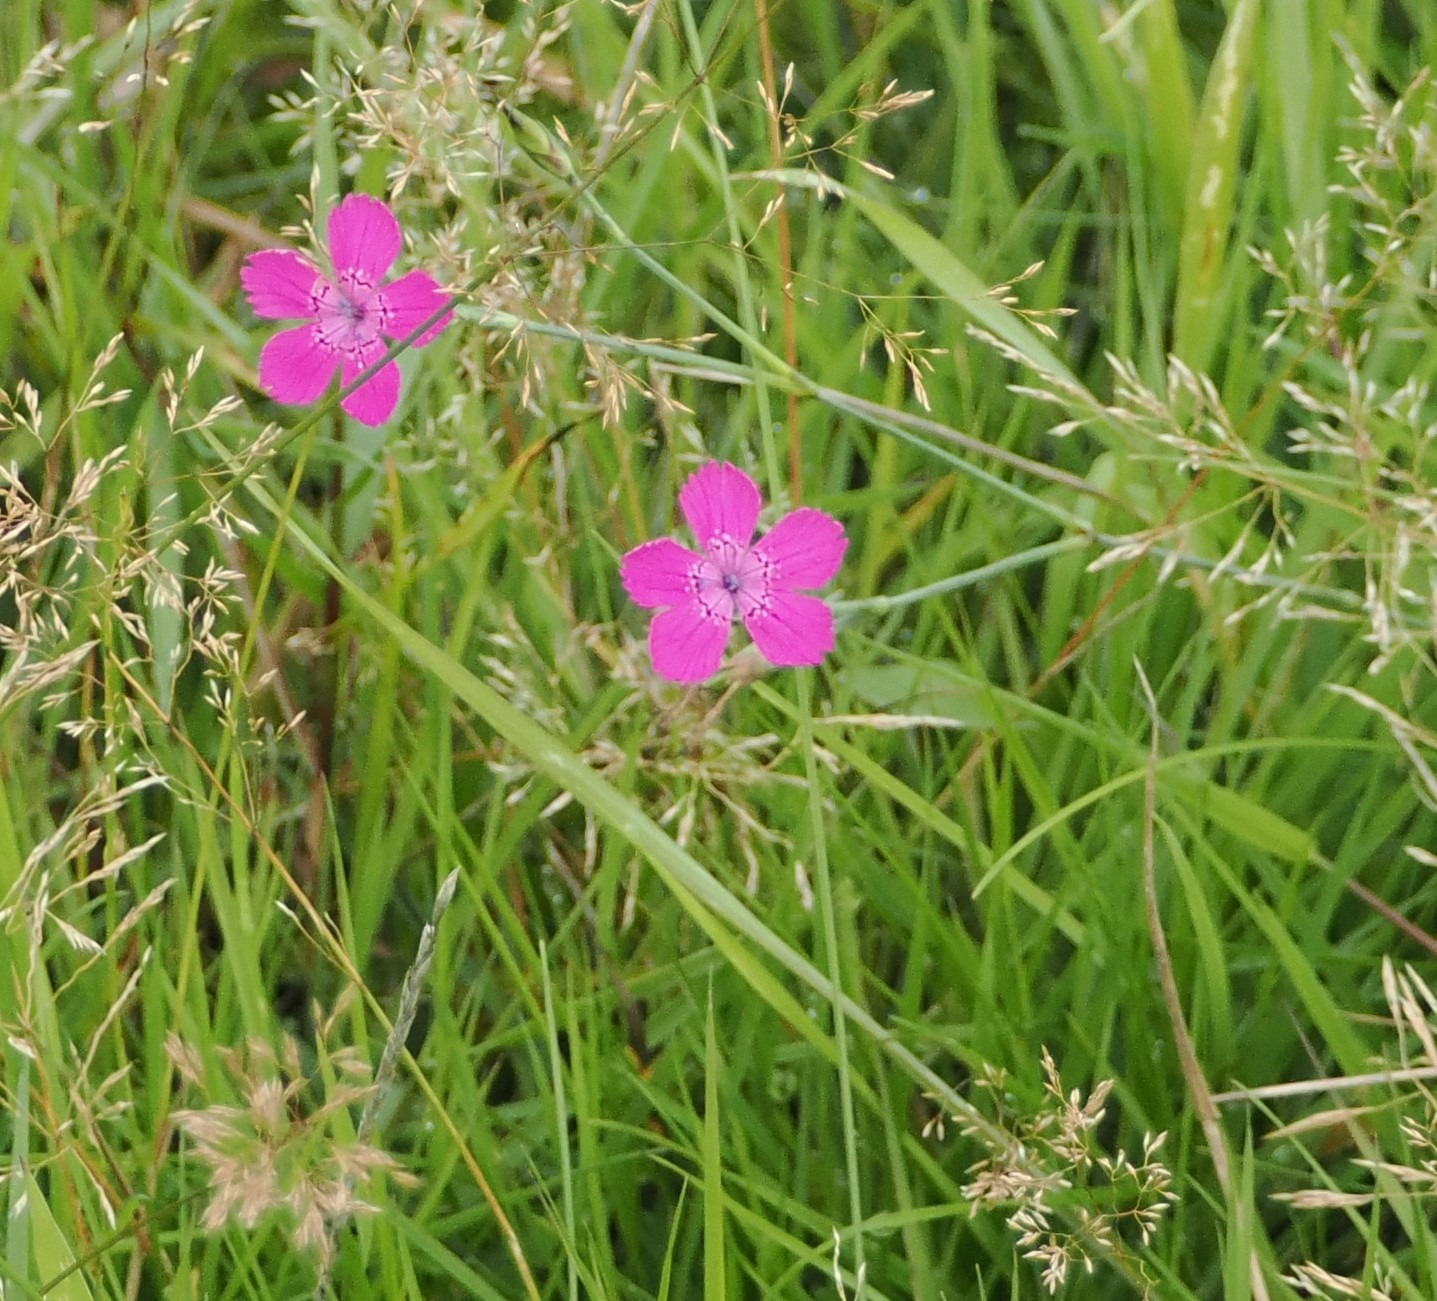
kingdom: Plantae
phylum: Tracheophyta
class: Magnoliopsida
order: Caryophyllales
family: Caryophyllaceae
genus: Dianthus
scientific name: Dianthus deltoides
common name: Bakke-nellike
